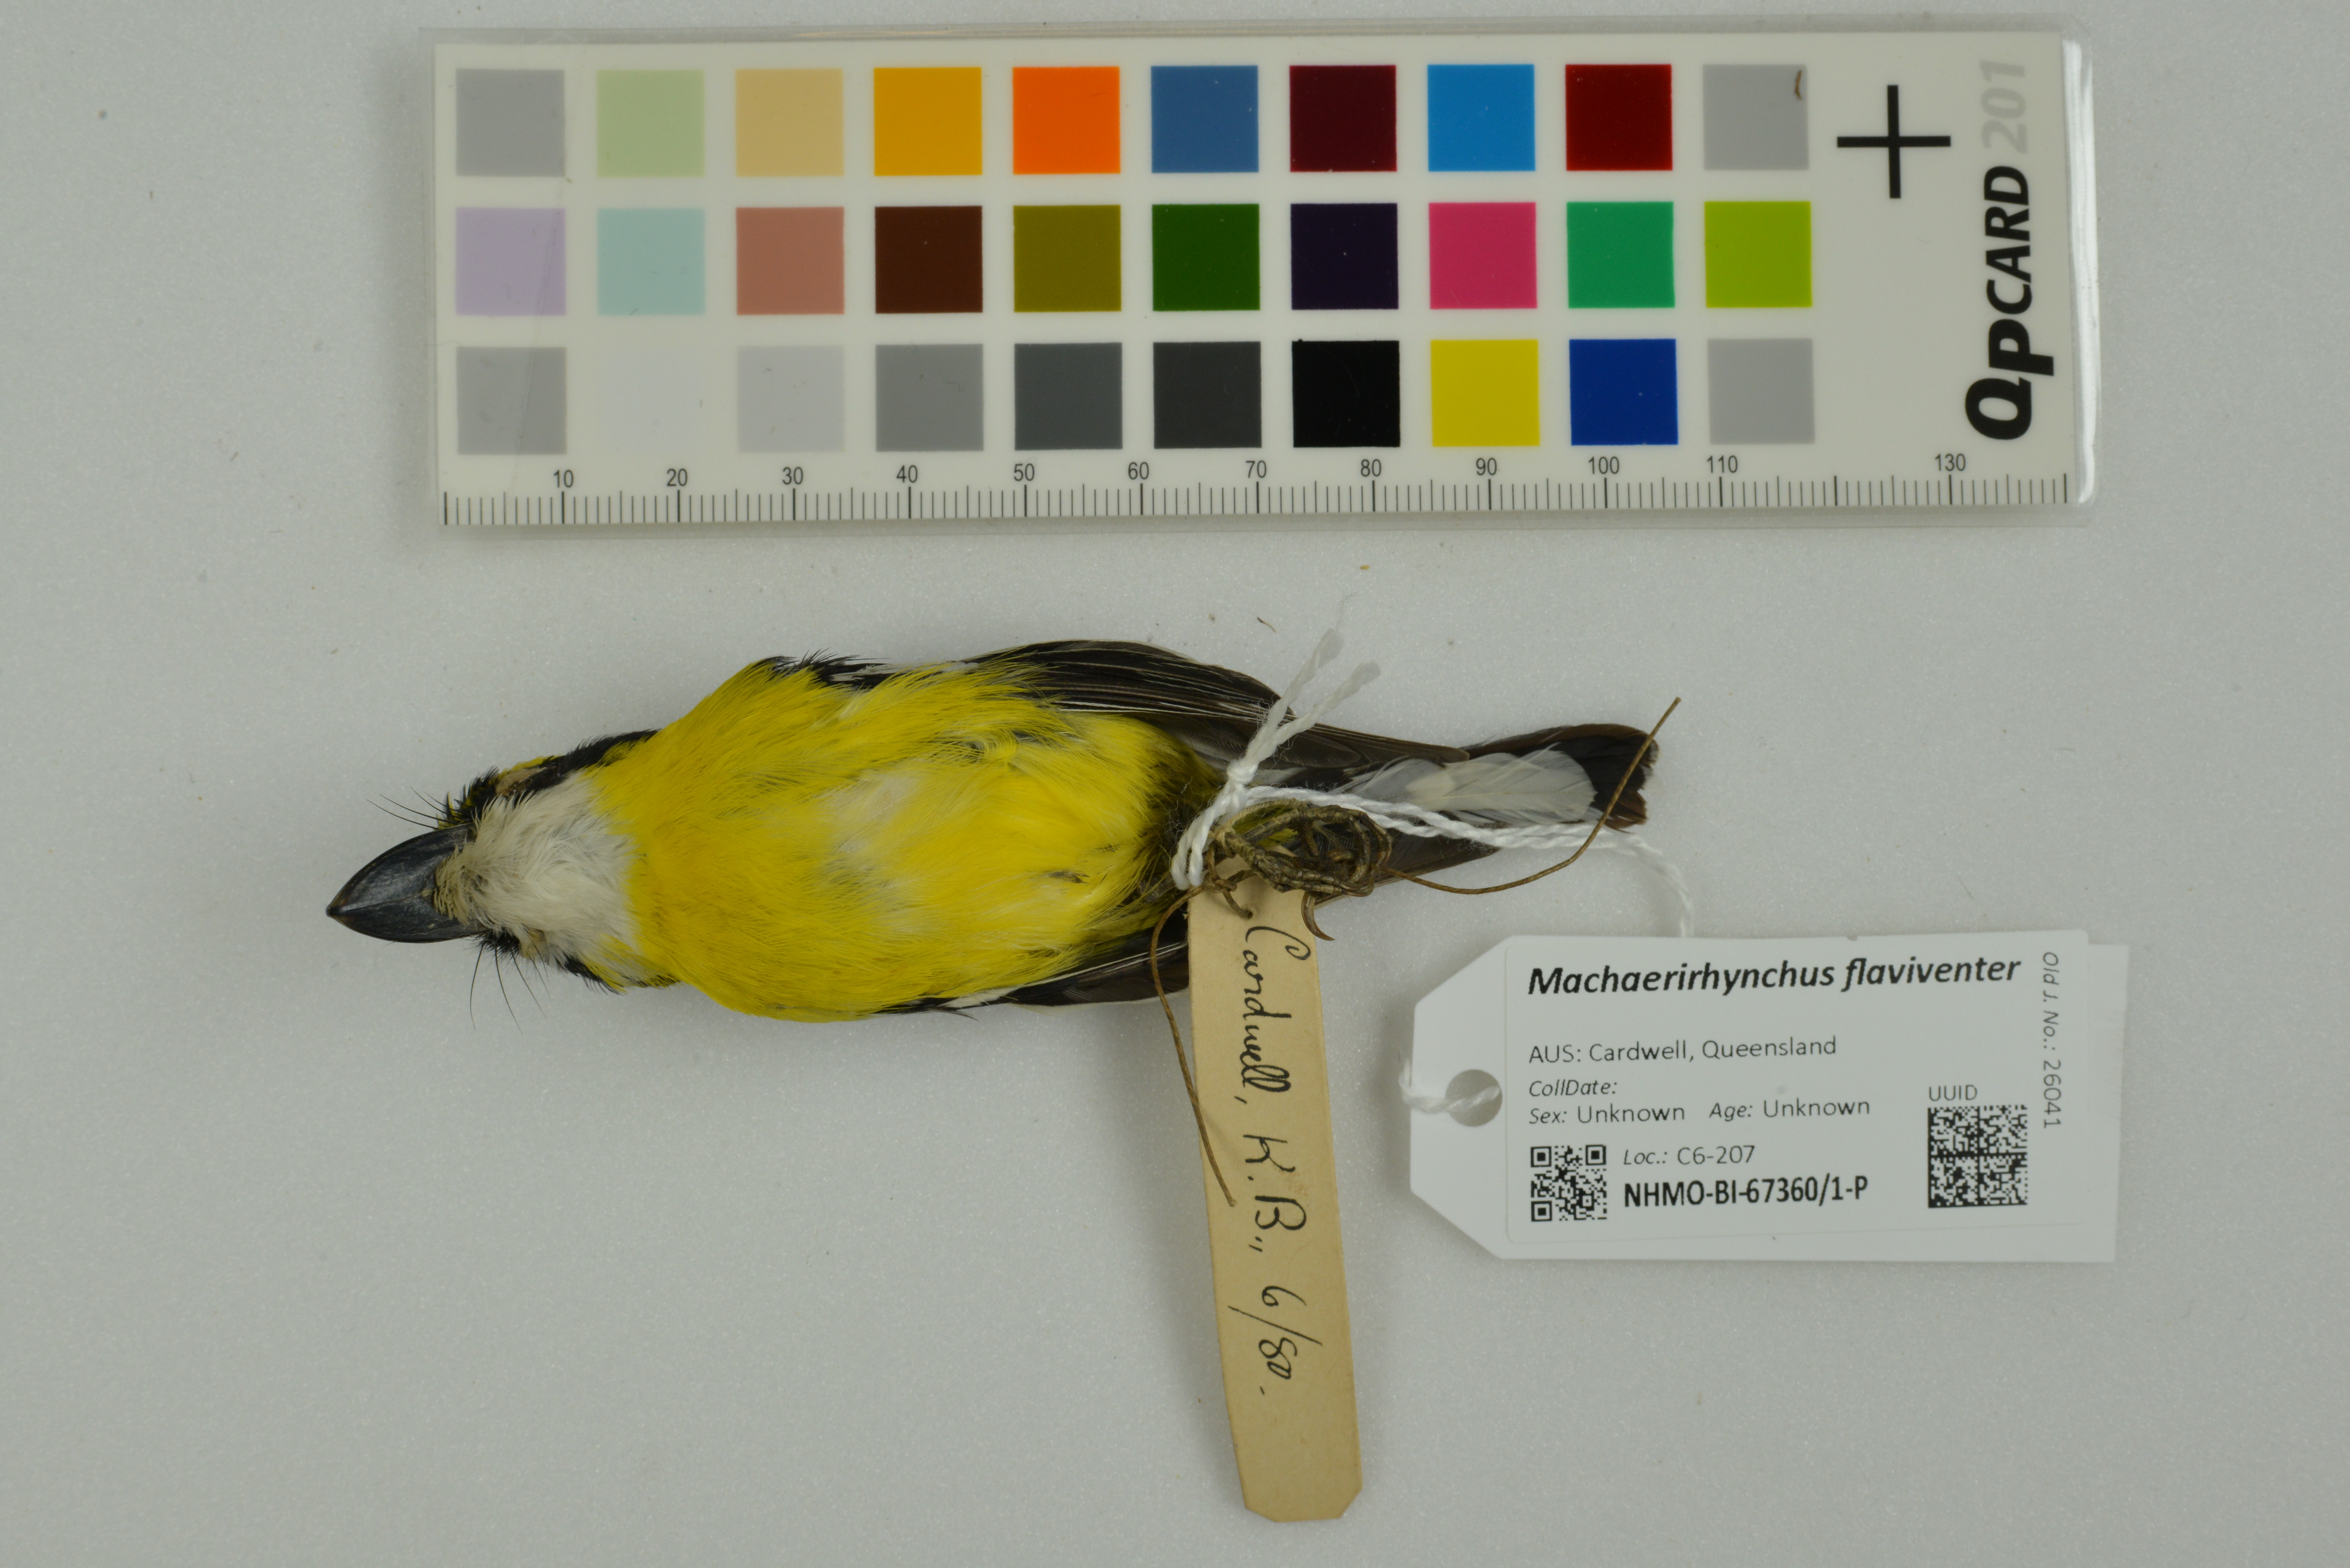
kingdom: Animalia
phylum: Chordata
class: Aves
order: Passeriformes
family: Machaerirhynchidae
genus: Machaerirhynchus
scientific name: Machaerirhynchus flaviventer
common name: Yellow-breasted boatbill
